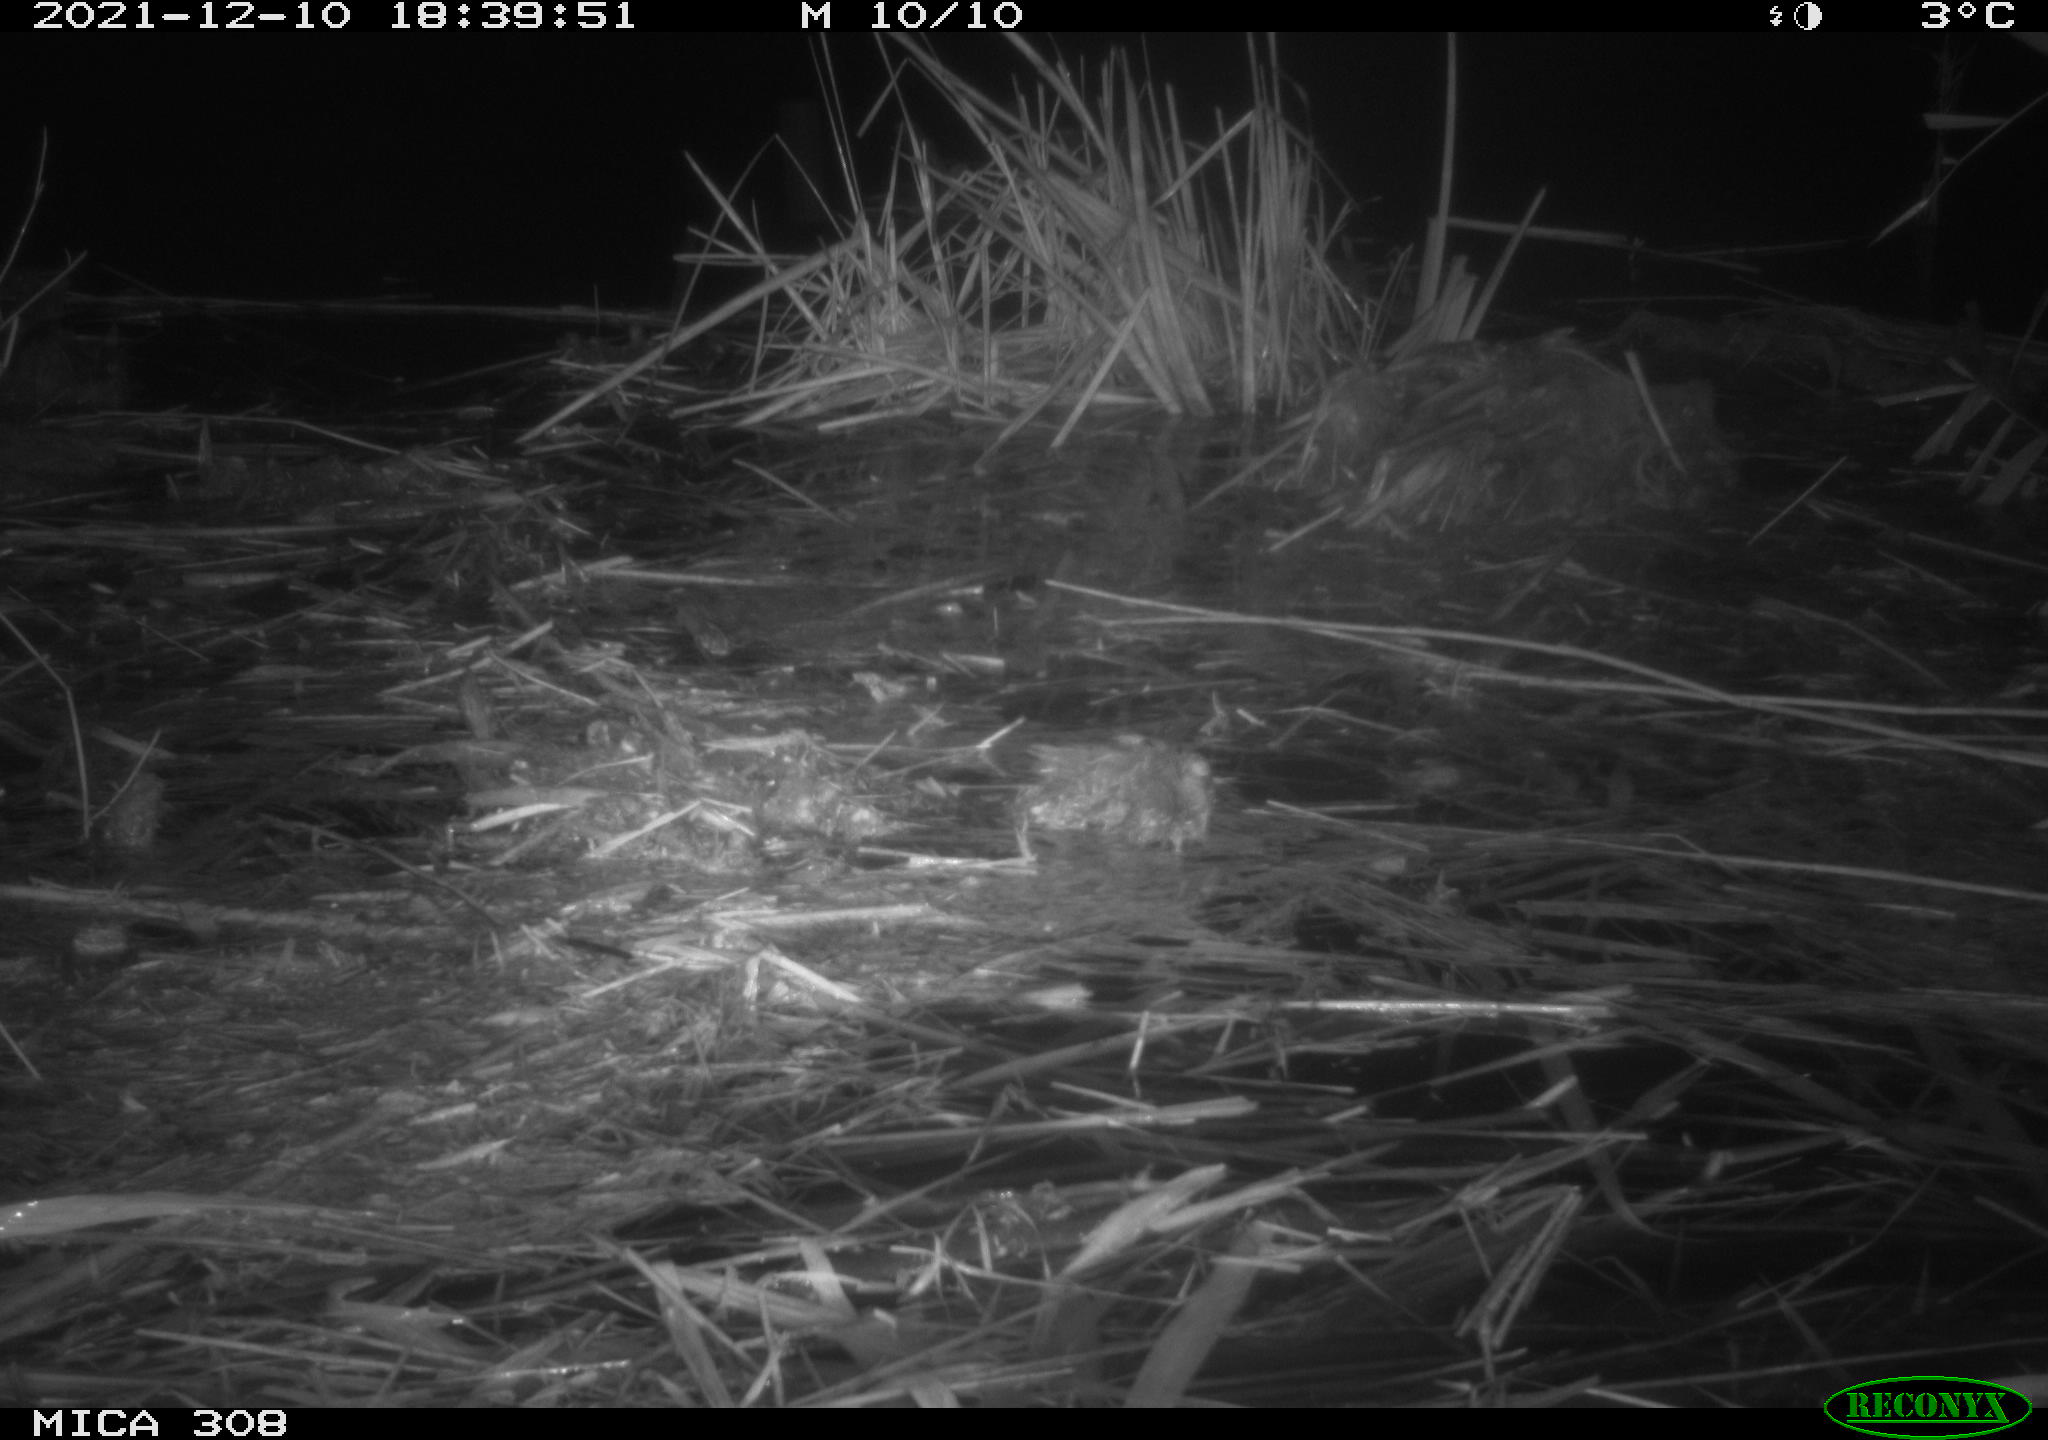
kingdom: Animalia
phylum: Chordata
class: Mammalia
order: Rodentia
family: Muridae
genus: Rattus
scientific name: Rattus norvegicus
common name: Brown rat
